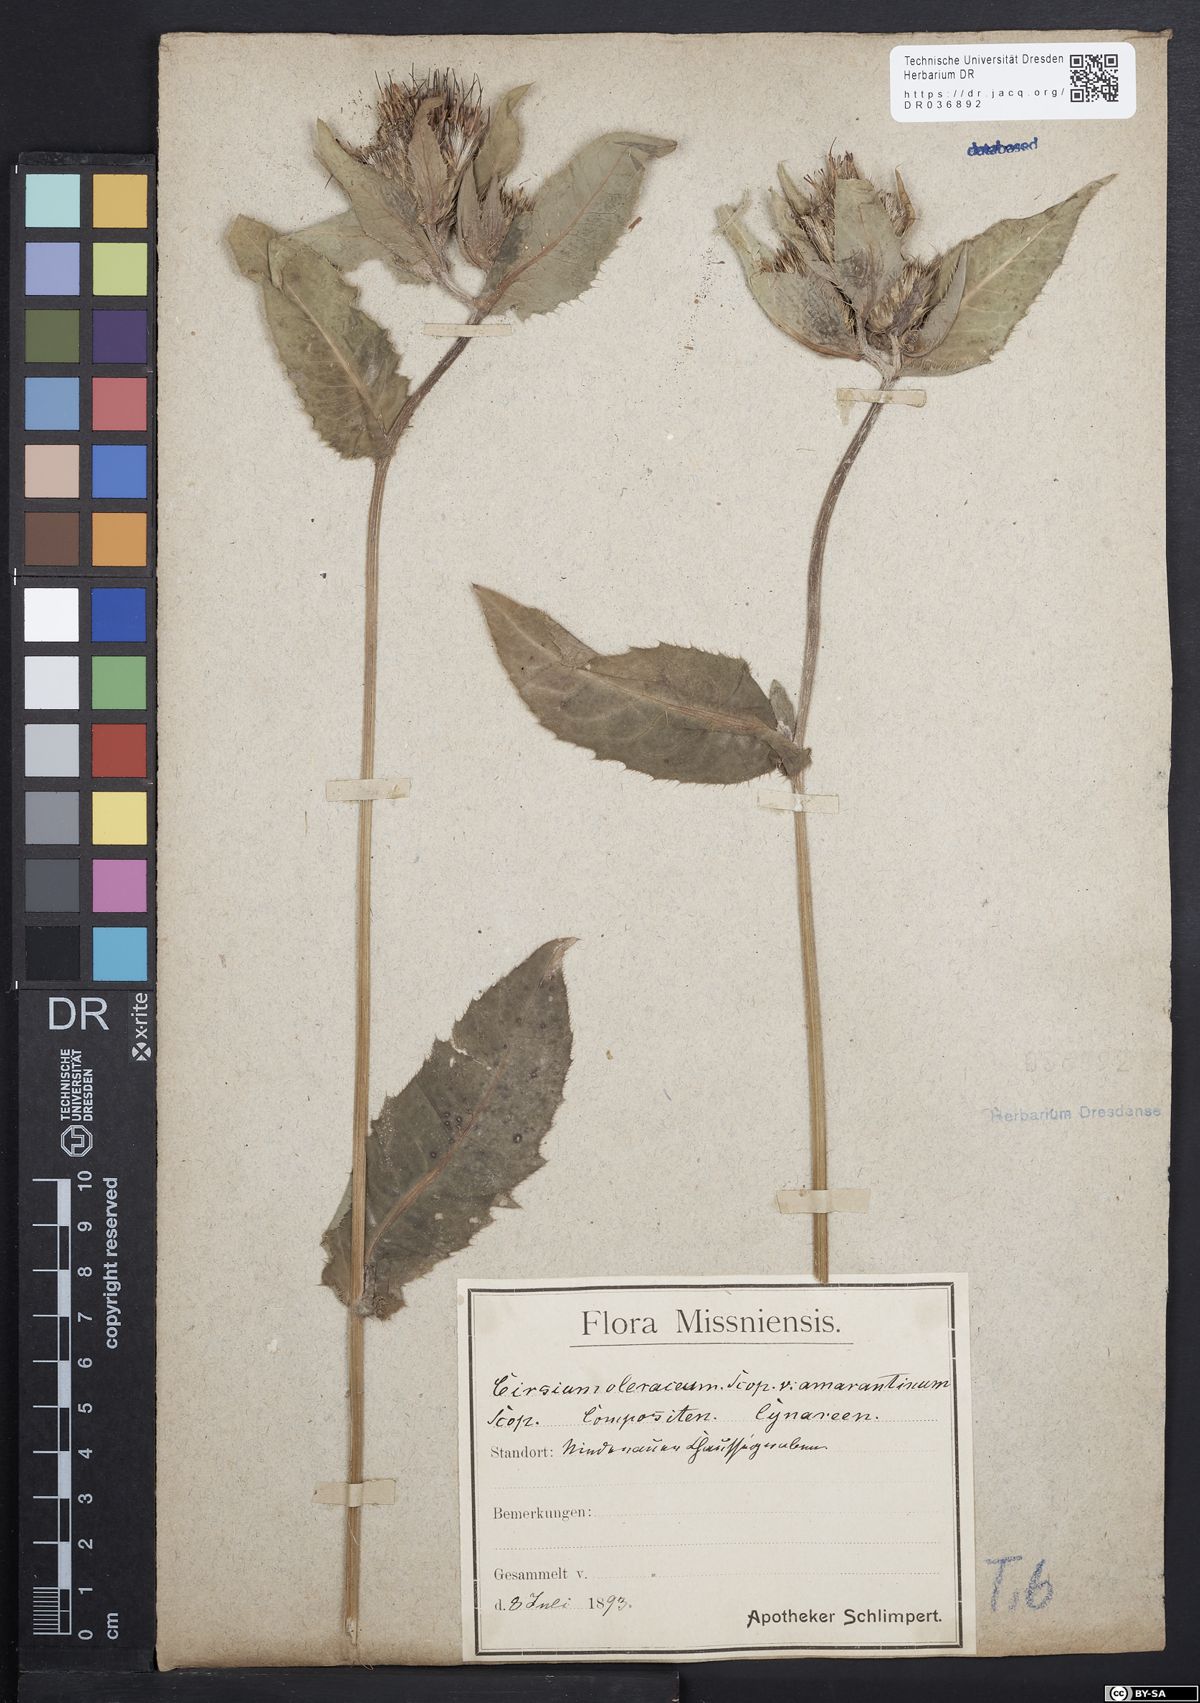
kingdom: Plantae
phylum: Tracheophyta
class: Magnoliopsida
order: Asterales
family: Asteraceae
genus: Cirsium
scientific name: Cirsium oleraceum
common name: Cabbage thistle
